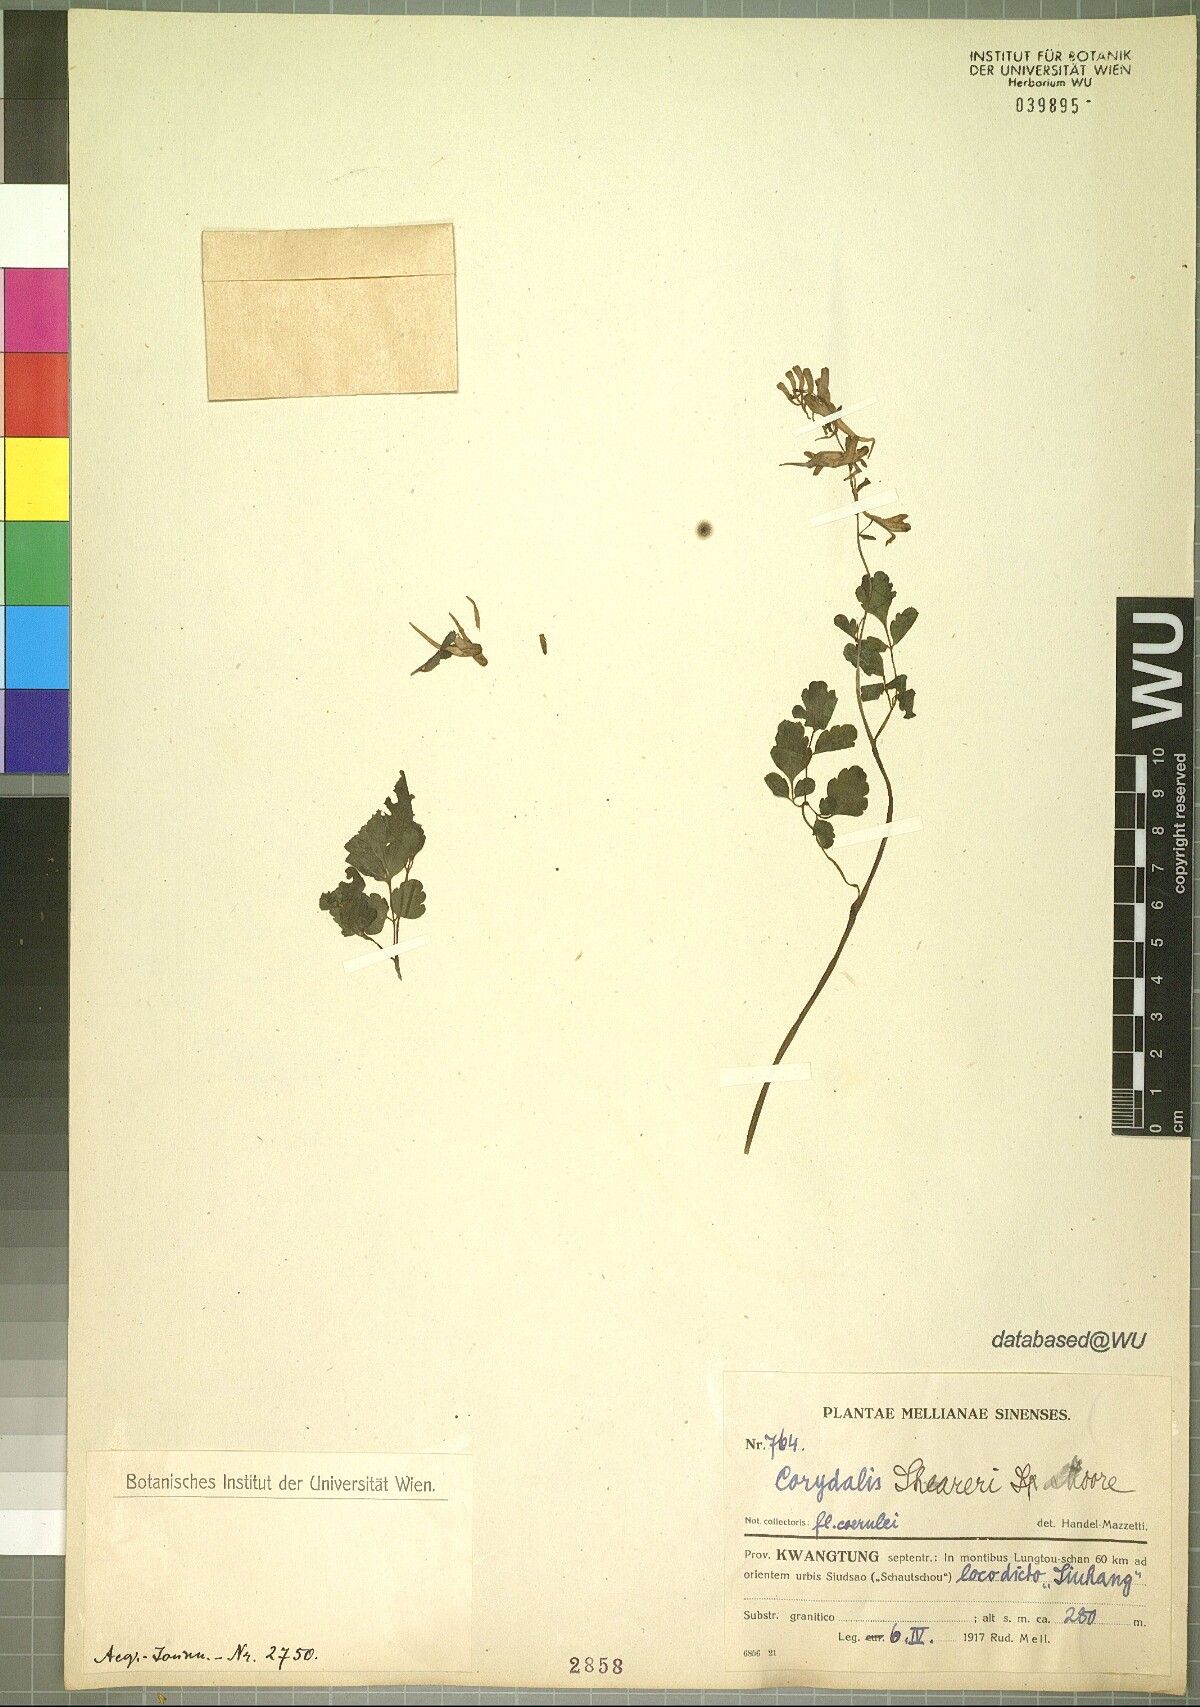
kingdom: Plantae
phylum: Tracheophyta
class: Magnoliopsida
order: Ranunculales
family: Papaveraceae
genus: Corydalis
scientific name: Corydalis sheareri
